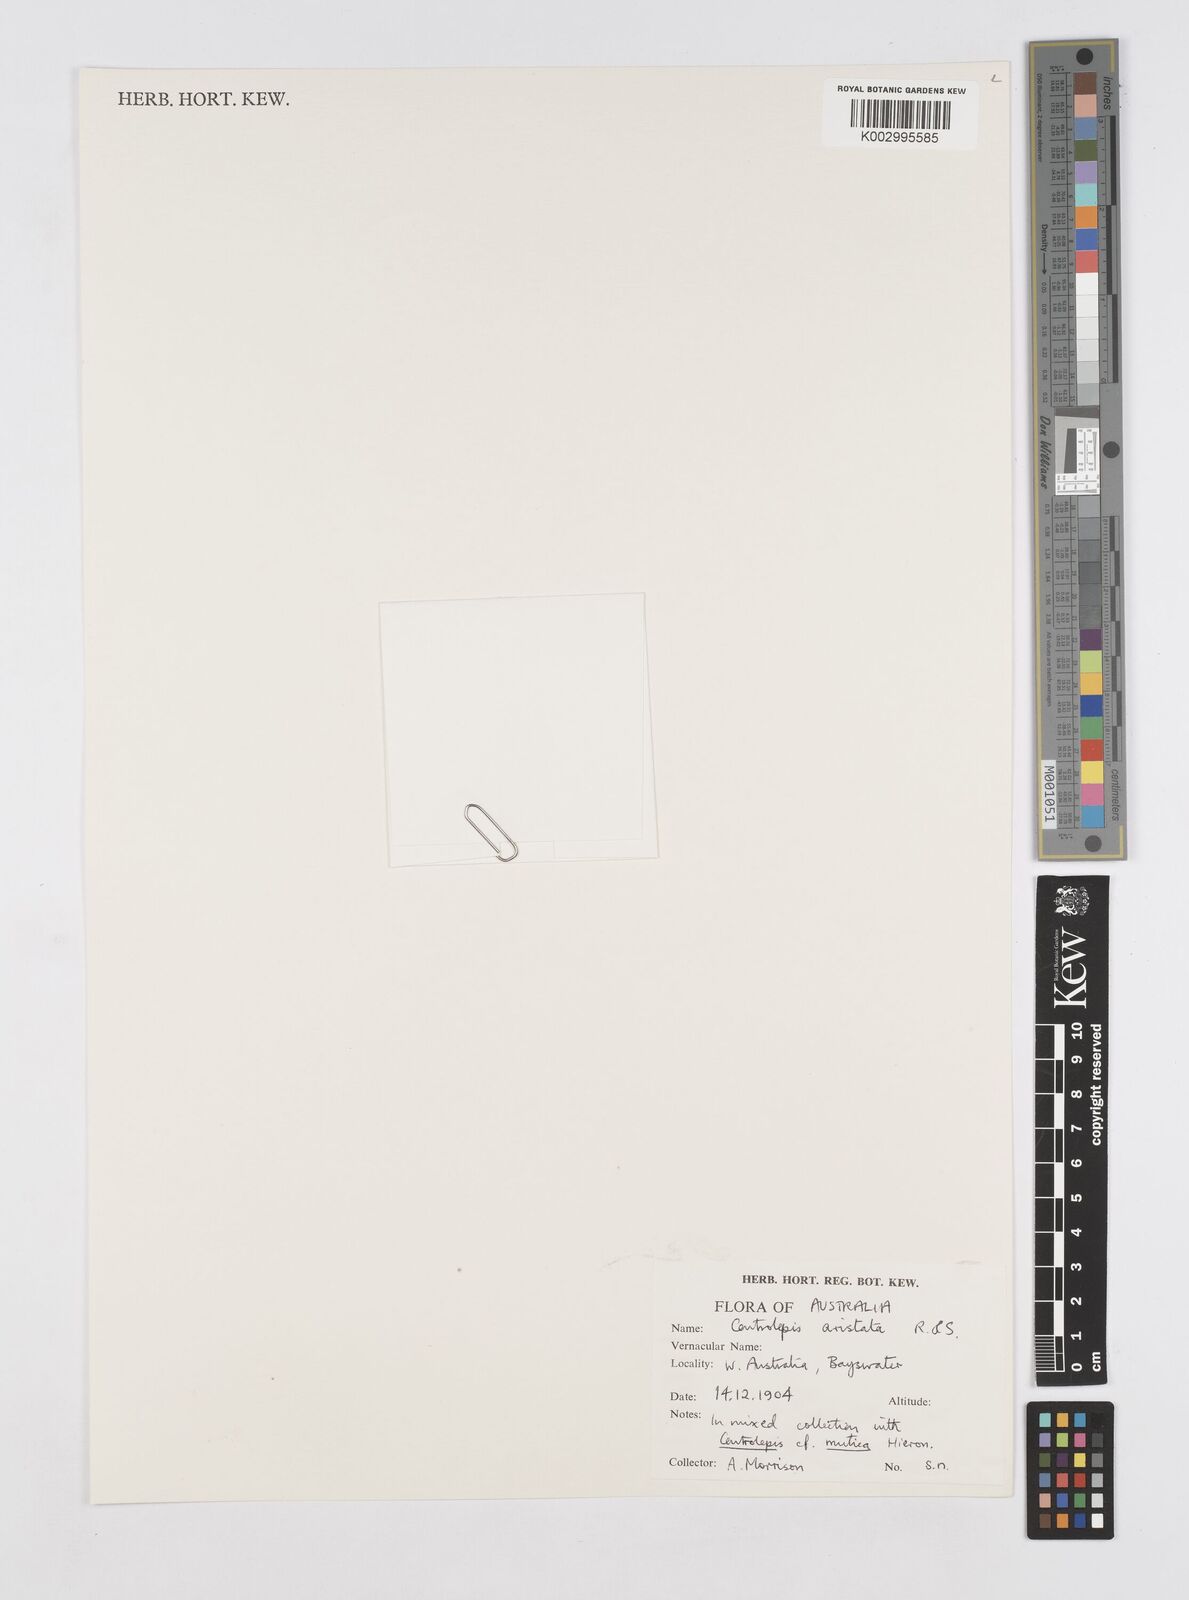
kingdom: Plantae
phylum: Tracheophyta
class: Liliopsida
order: Poales
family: Restionaceae
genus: Centrolepis
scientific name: Centrolepis aristata
